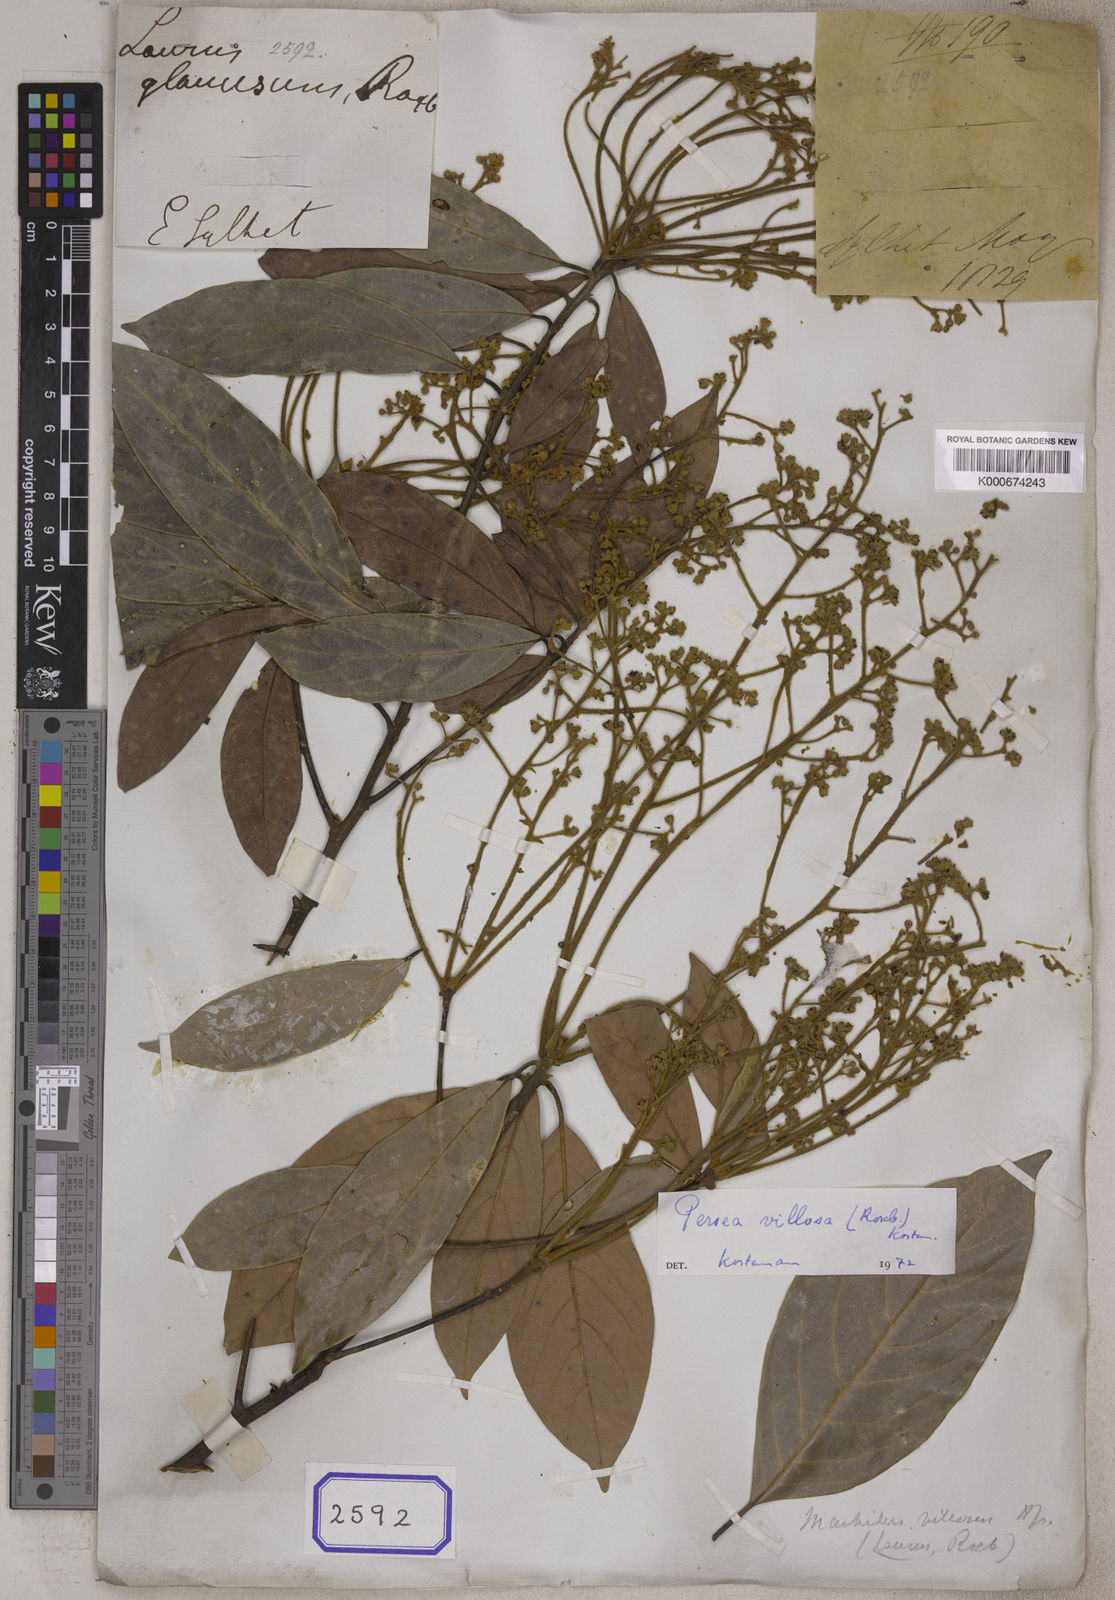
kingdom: Plantae
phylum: Tracheophyta
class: Magnoliopsida
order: Laurales
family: Lauraceae
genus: Machilus
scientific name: Machilus glaucescens
